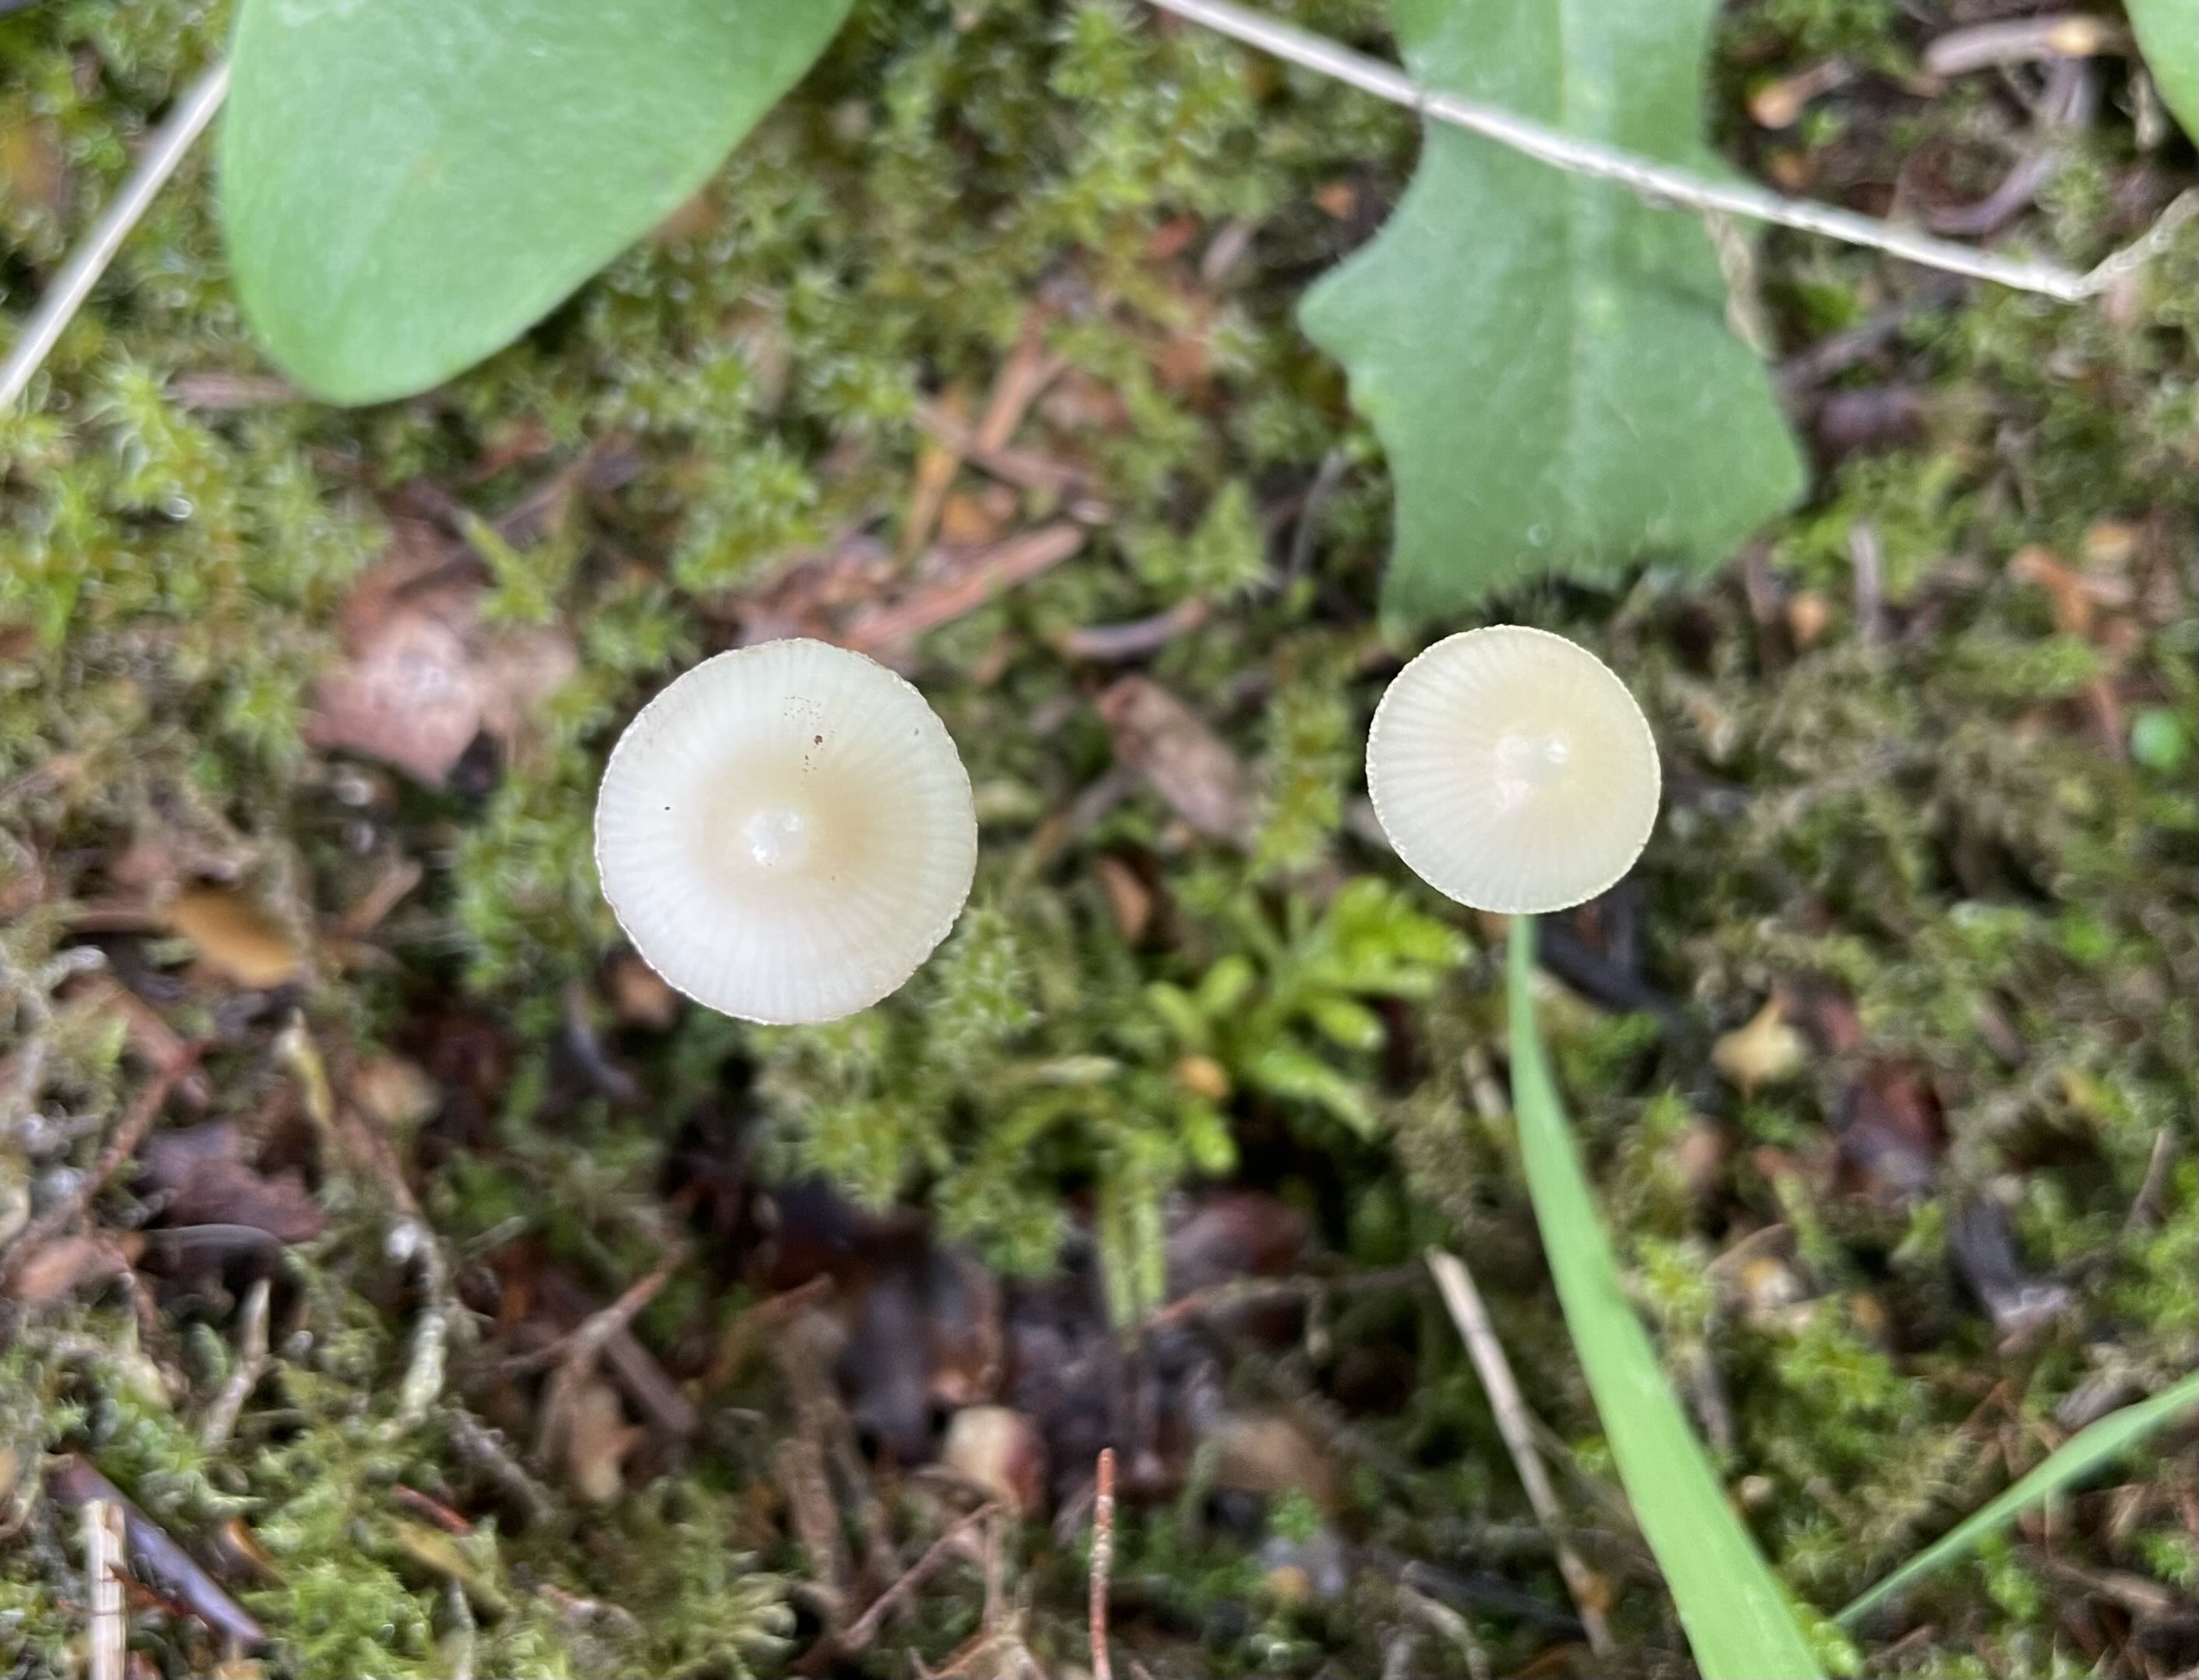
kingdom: Fungi
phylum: Basidiomycota
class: Agaricomycetes
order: Agaricales
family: Mycenaceae
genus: Mycena
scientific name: Mycena
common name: huesvamp
